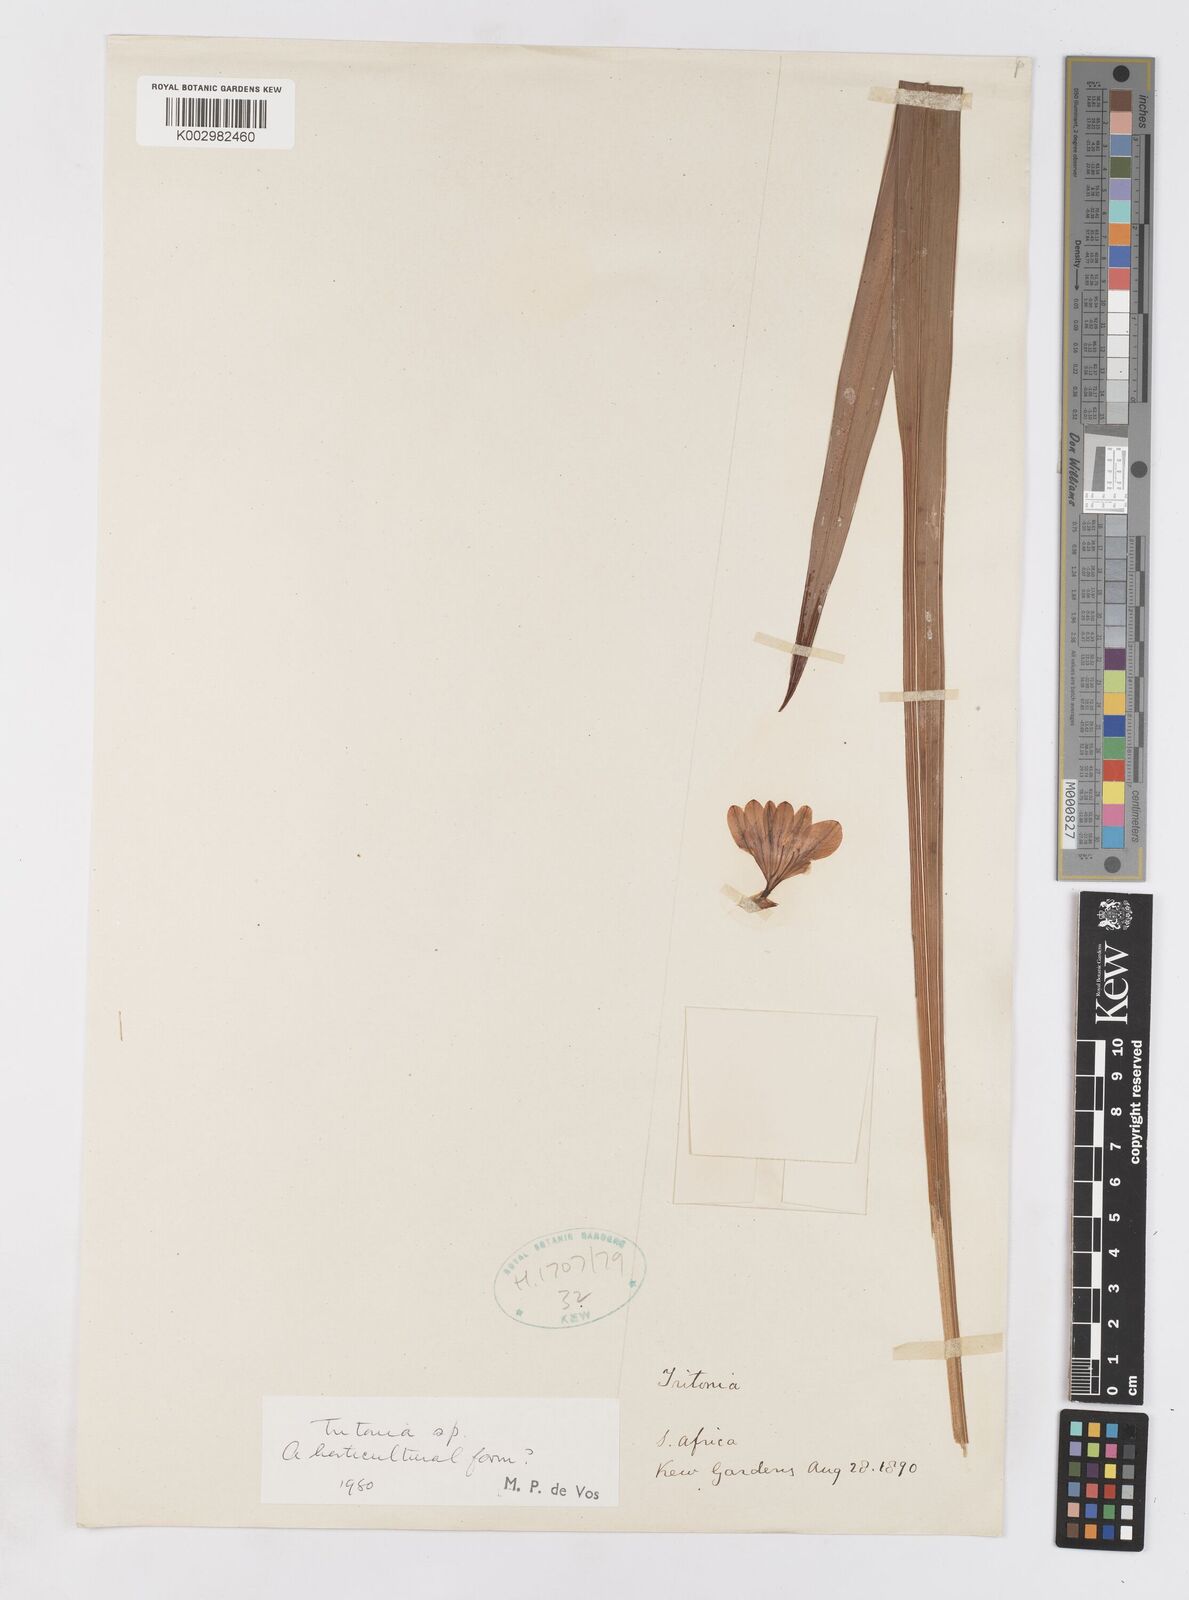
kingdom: Plantae
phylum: Tracheophyta
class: Liliopsida
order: Asparagales
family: Iridaceae
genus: Tritonia
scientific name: Tritonia
